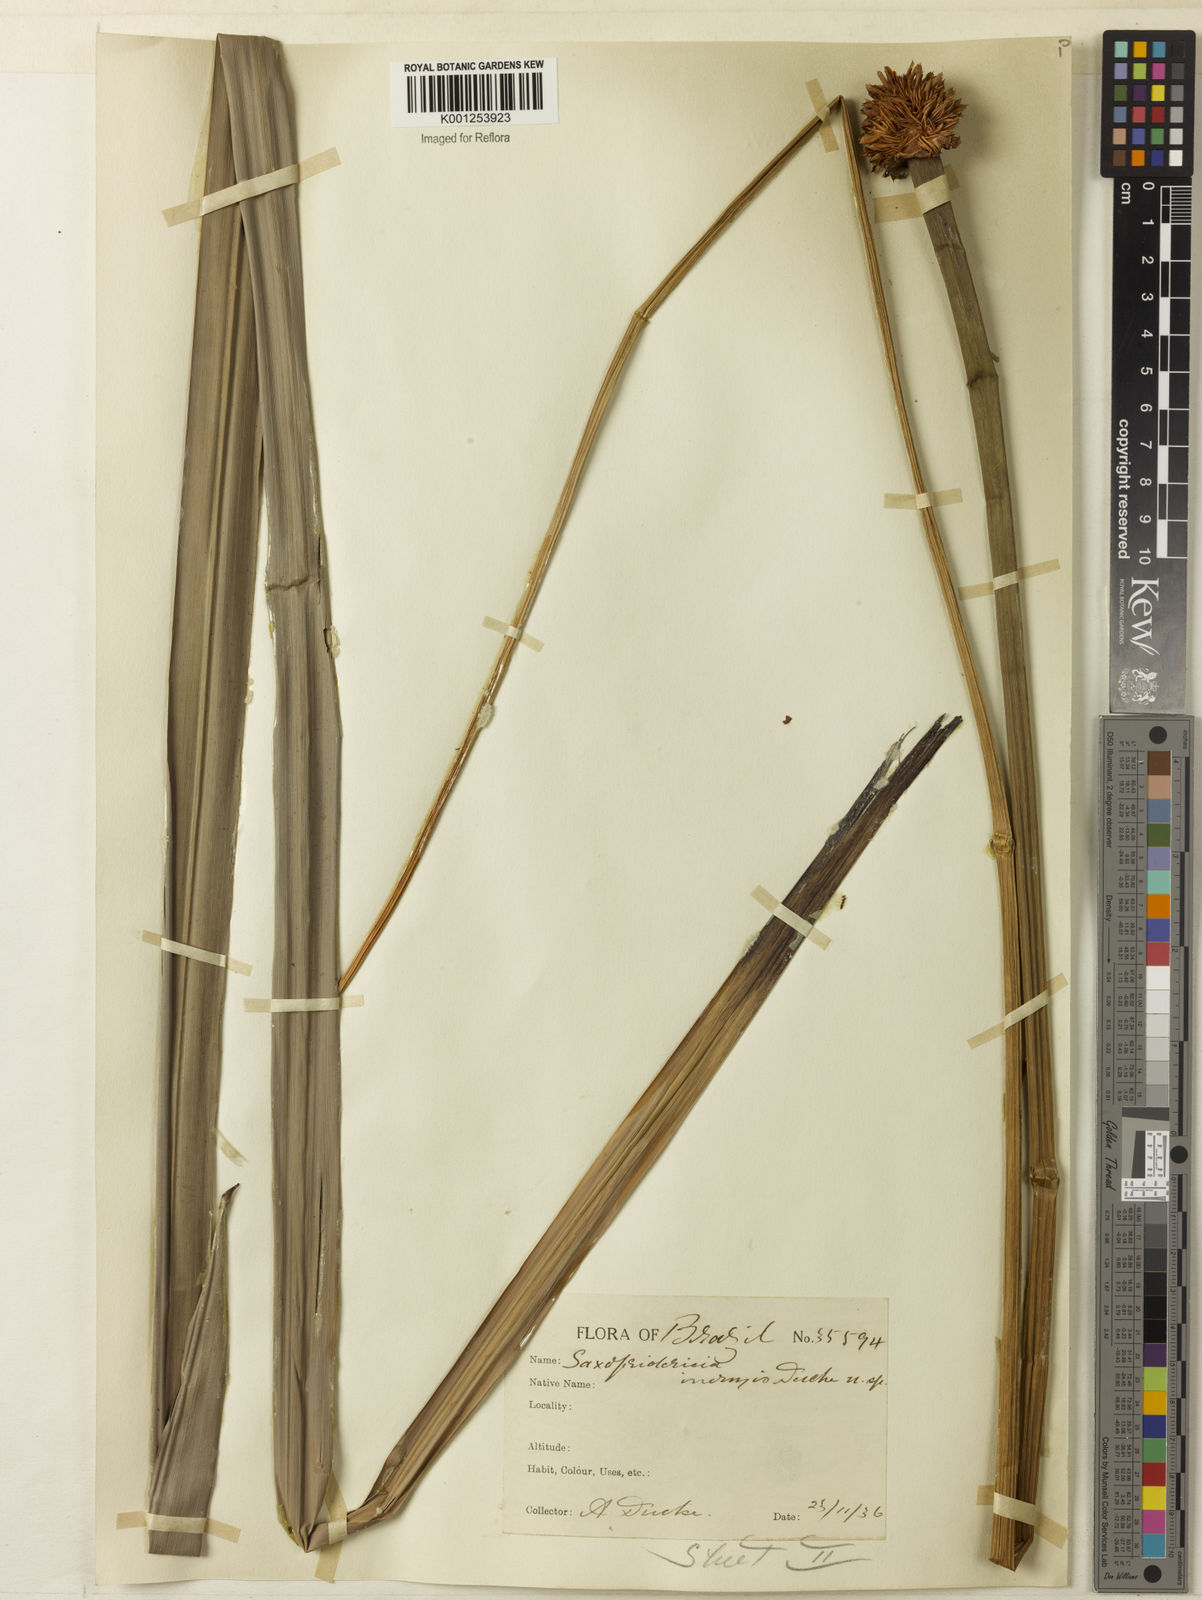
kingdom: Plantae
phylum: Tracheophyta
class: Liliopsida
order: Poales
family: Rapateaceae
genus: Saxofridericia
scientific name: Saxofridericia inermis
